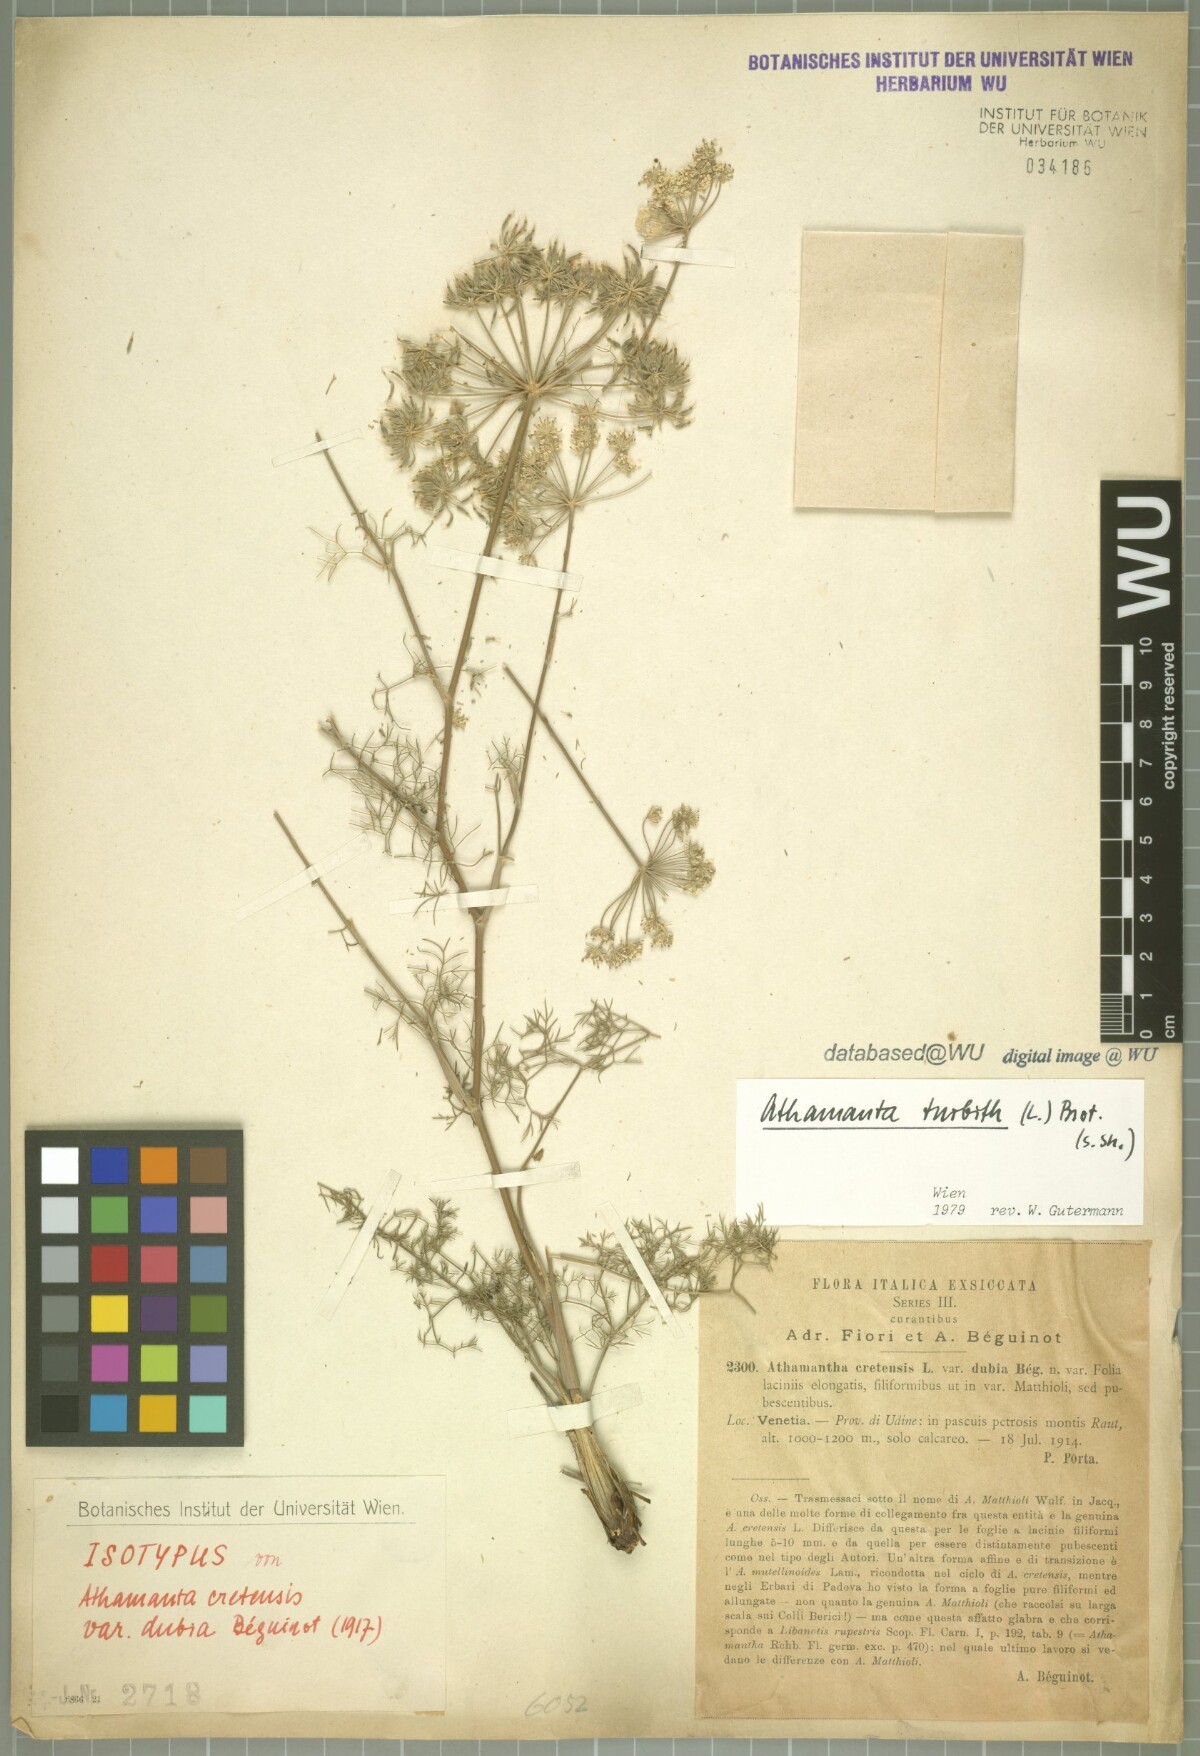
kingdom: Plantae
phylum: Tracheophyta
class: Magnoliopsida
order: Apiales
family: Apiaceae
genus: Athamanta
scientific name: Athamanta cretensis
